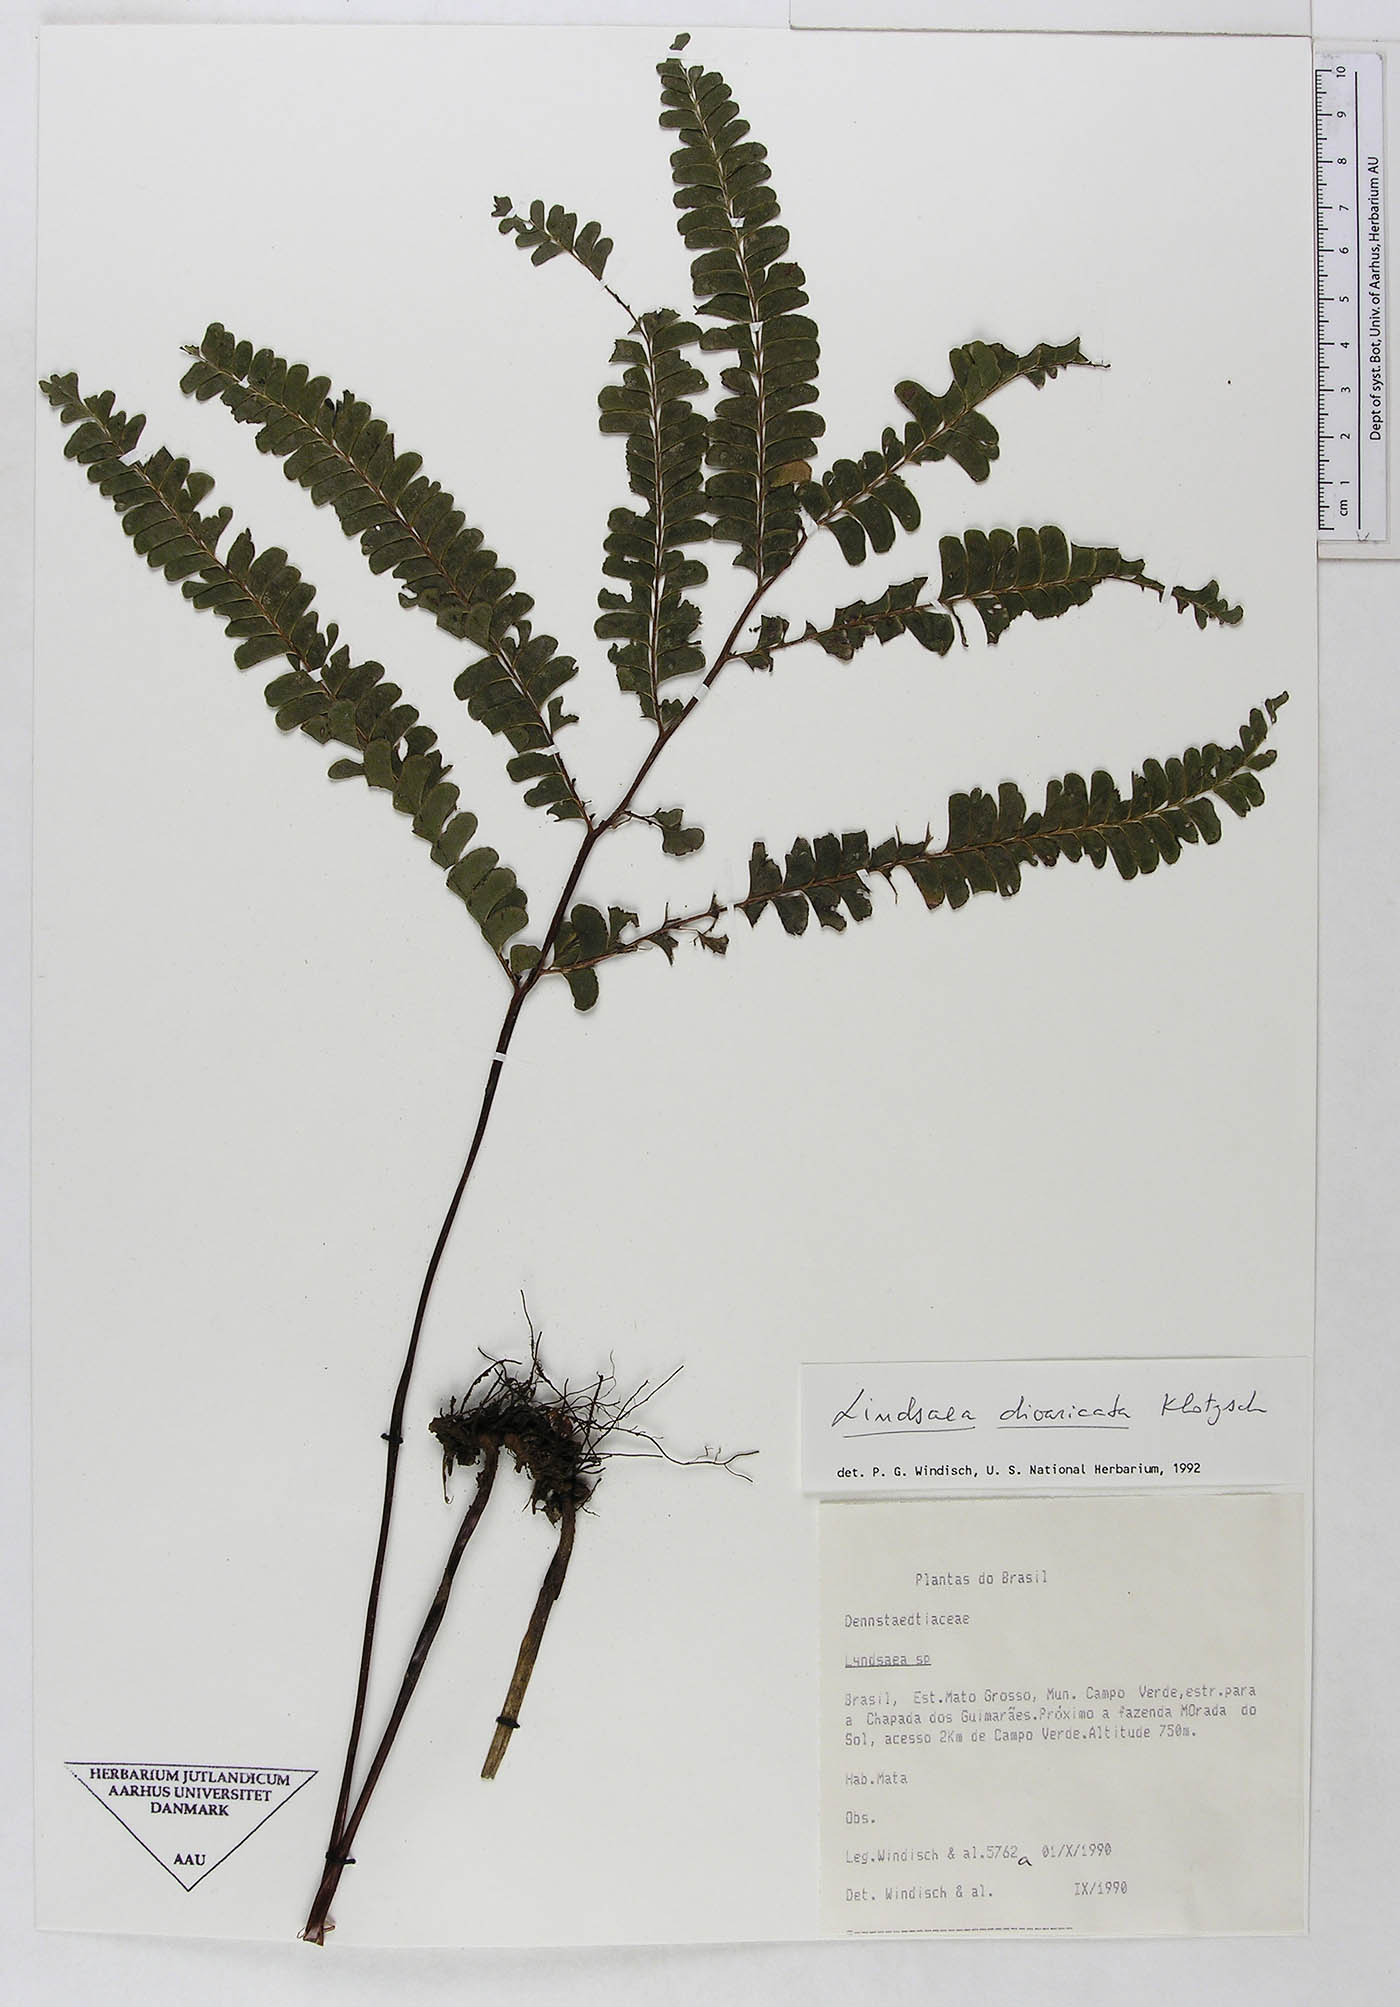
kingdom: Plantae
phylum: Tracheophyta
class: Polypodiopsida
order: Polypodiales
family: Lindsaeaceae
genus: Lindsaea
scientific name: Lindsaea divaricata
